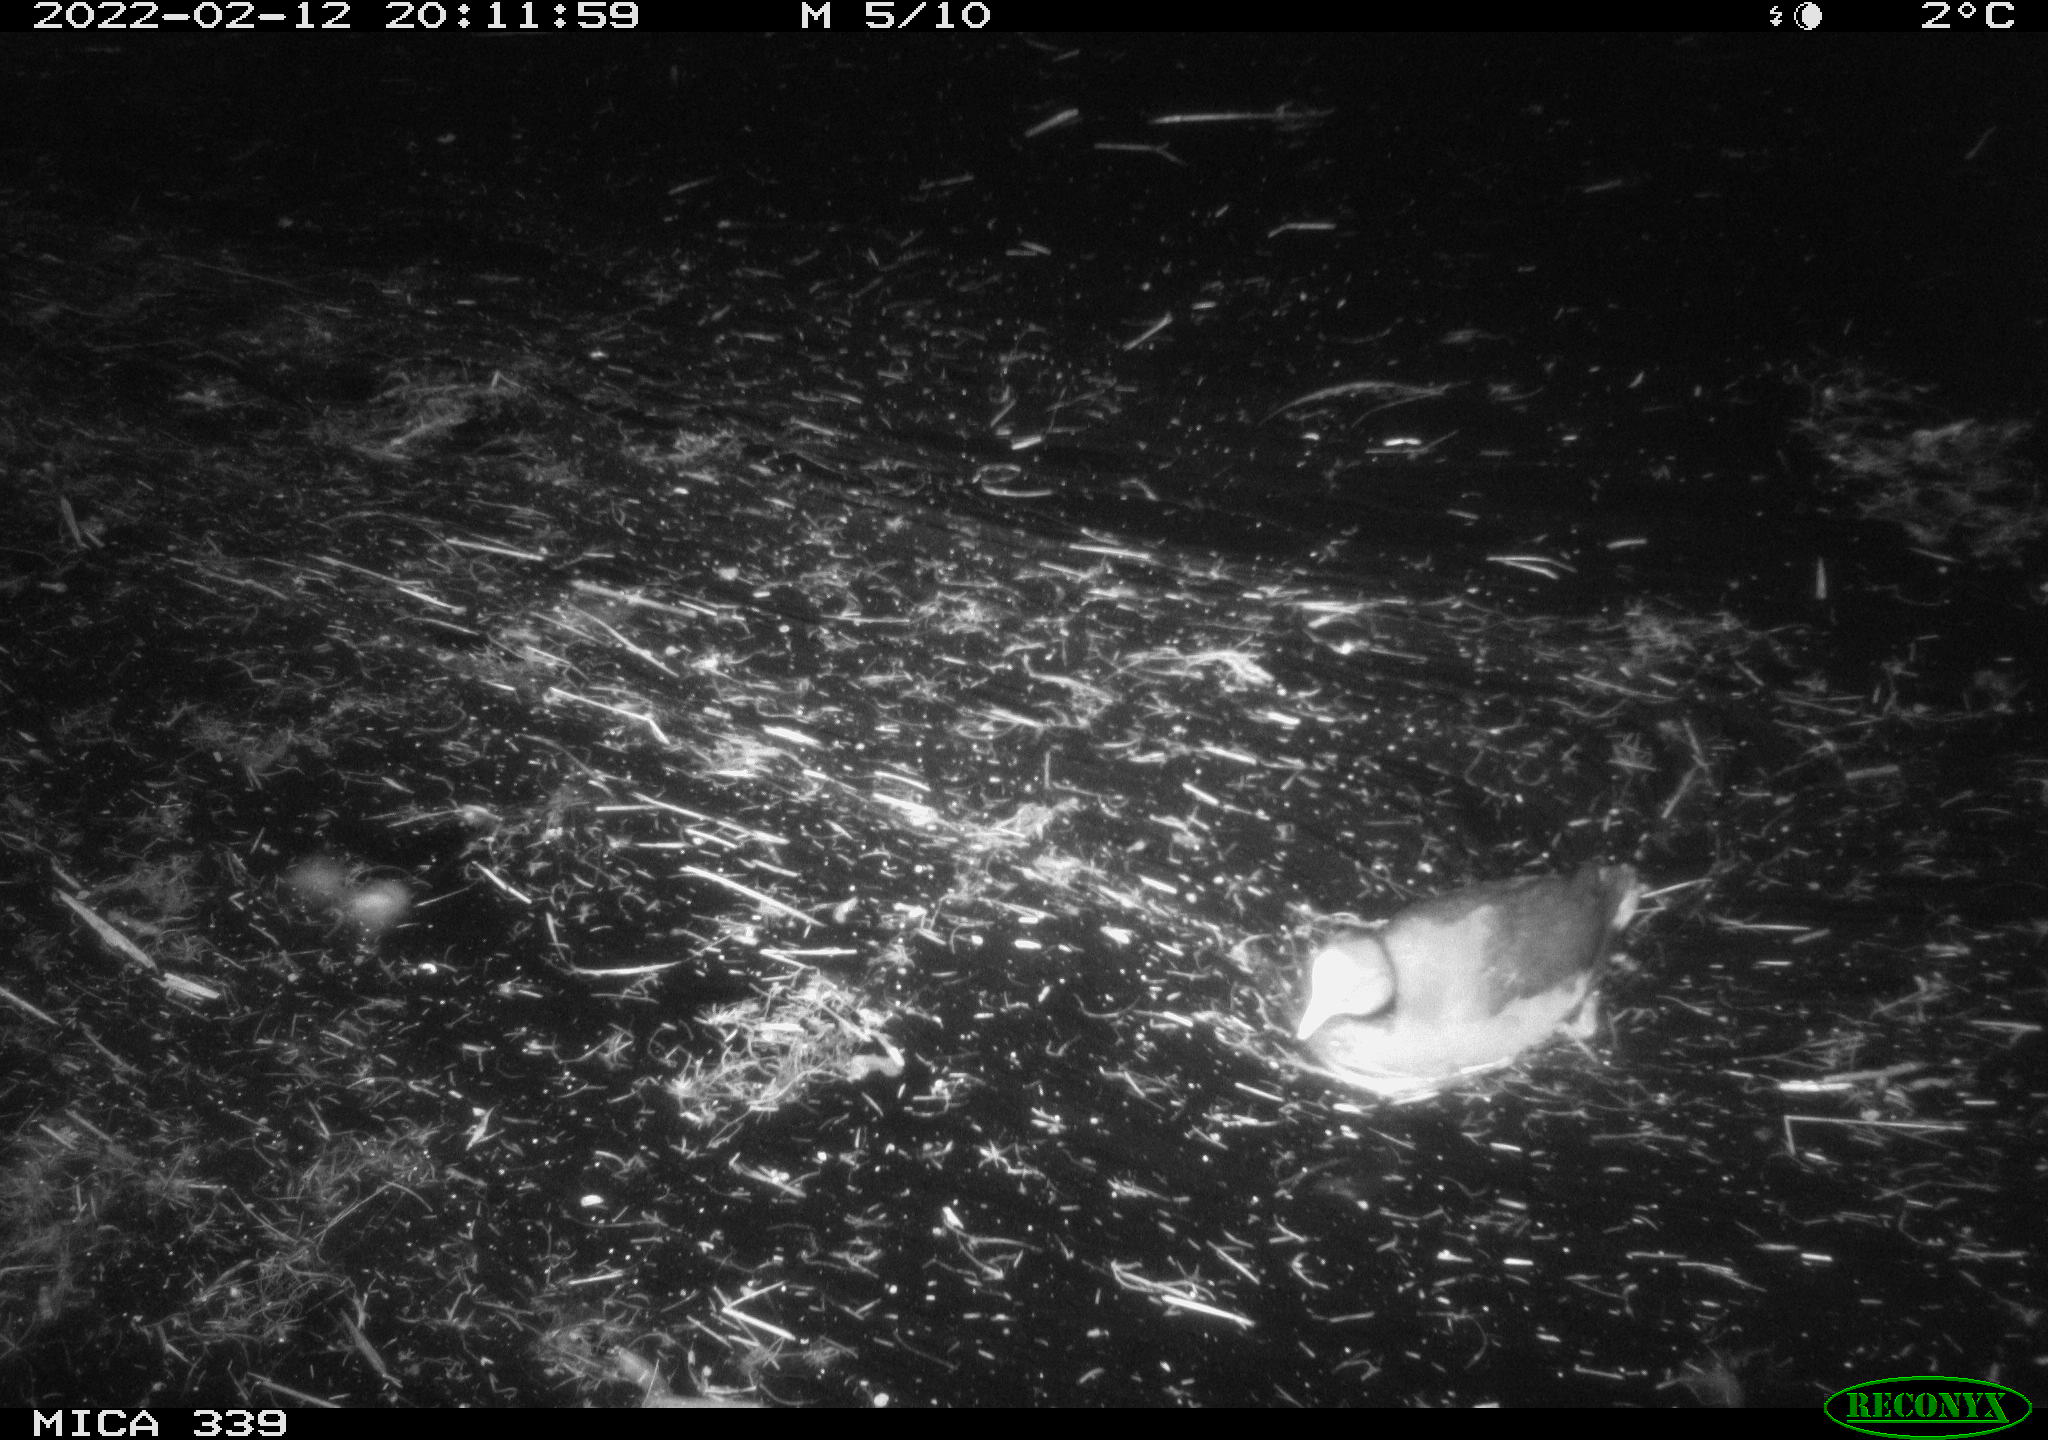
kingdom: Animalia
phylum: Chordata
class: Aves
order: Gruiformes
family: Rallidae
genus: Fulica
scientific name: Fulica atra
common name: Eurasian coot
